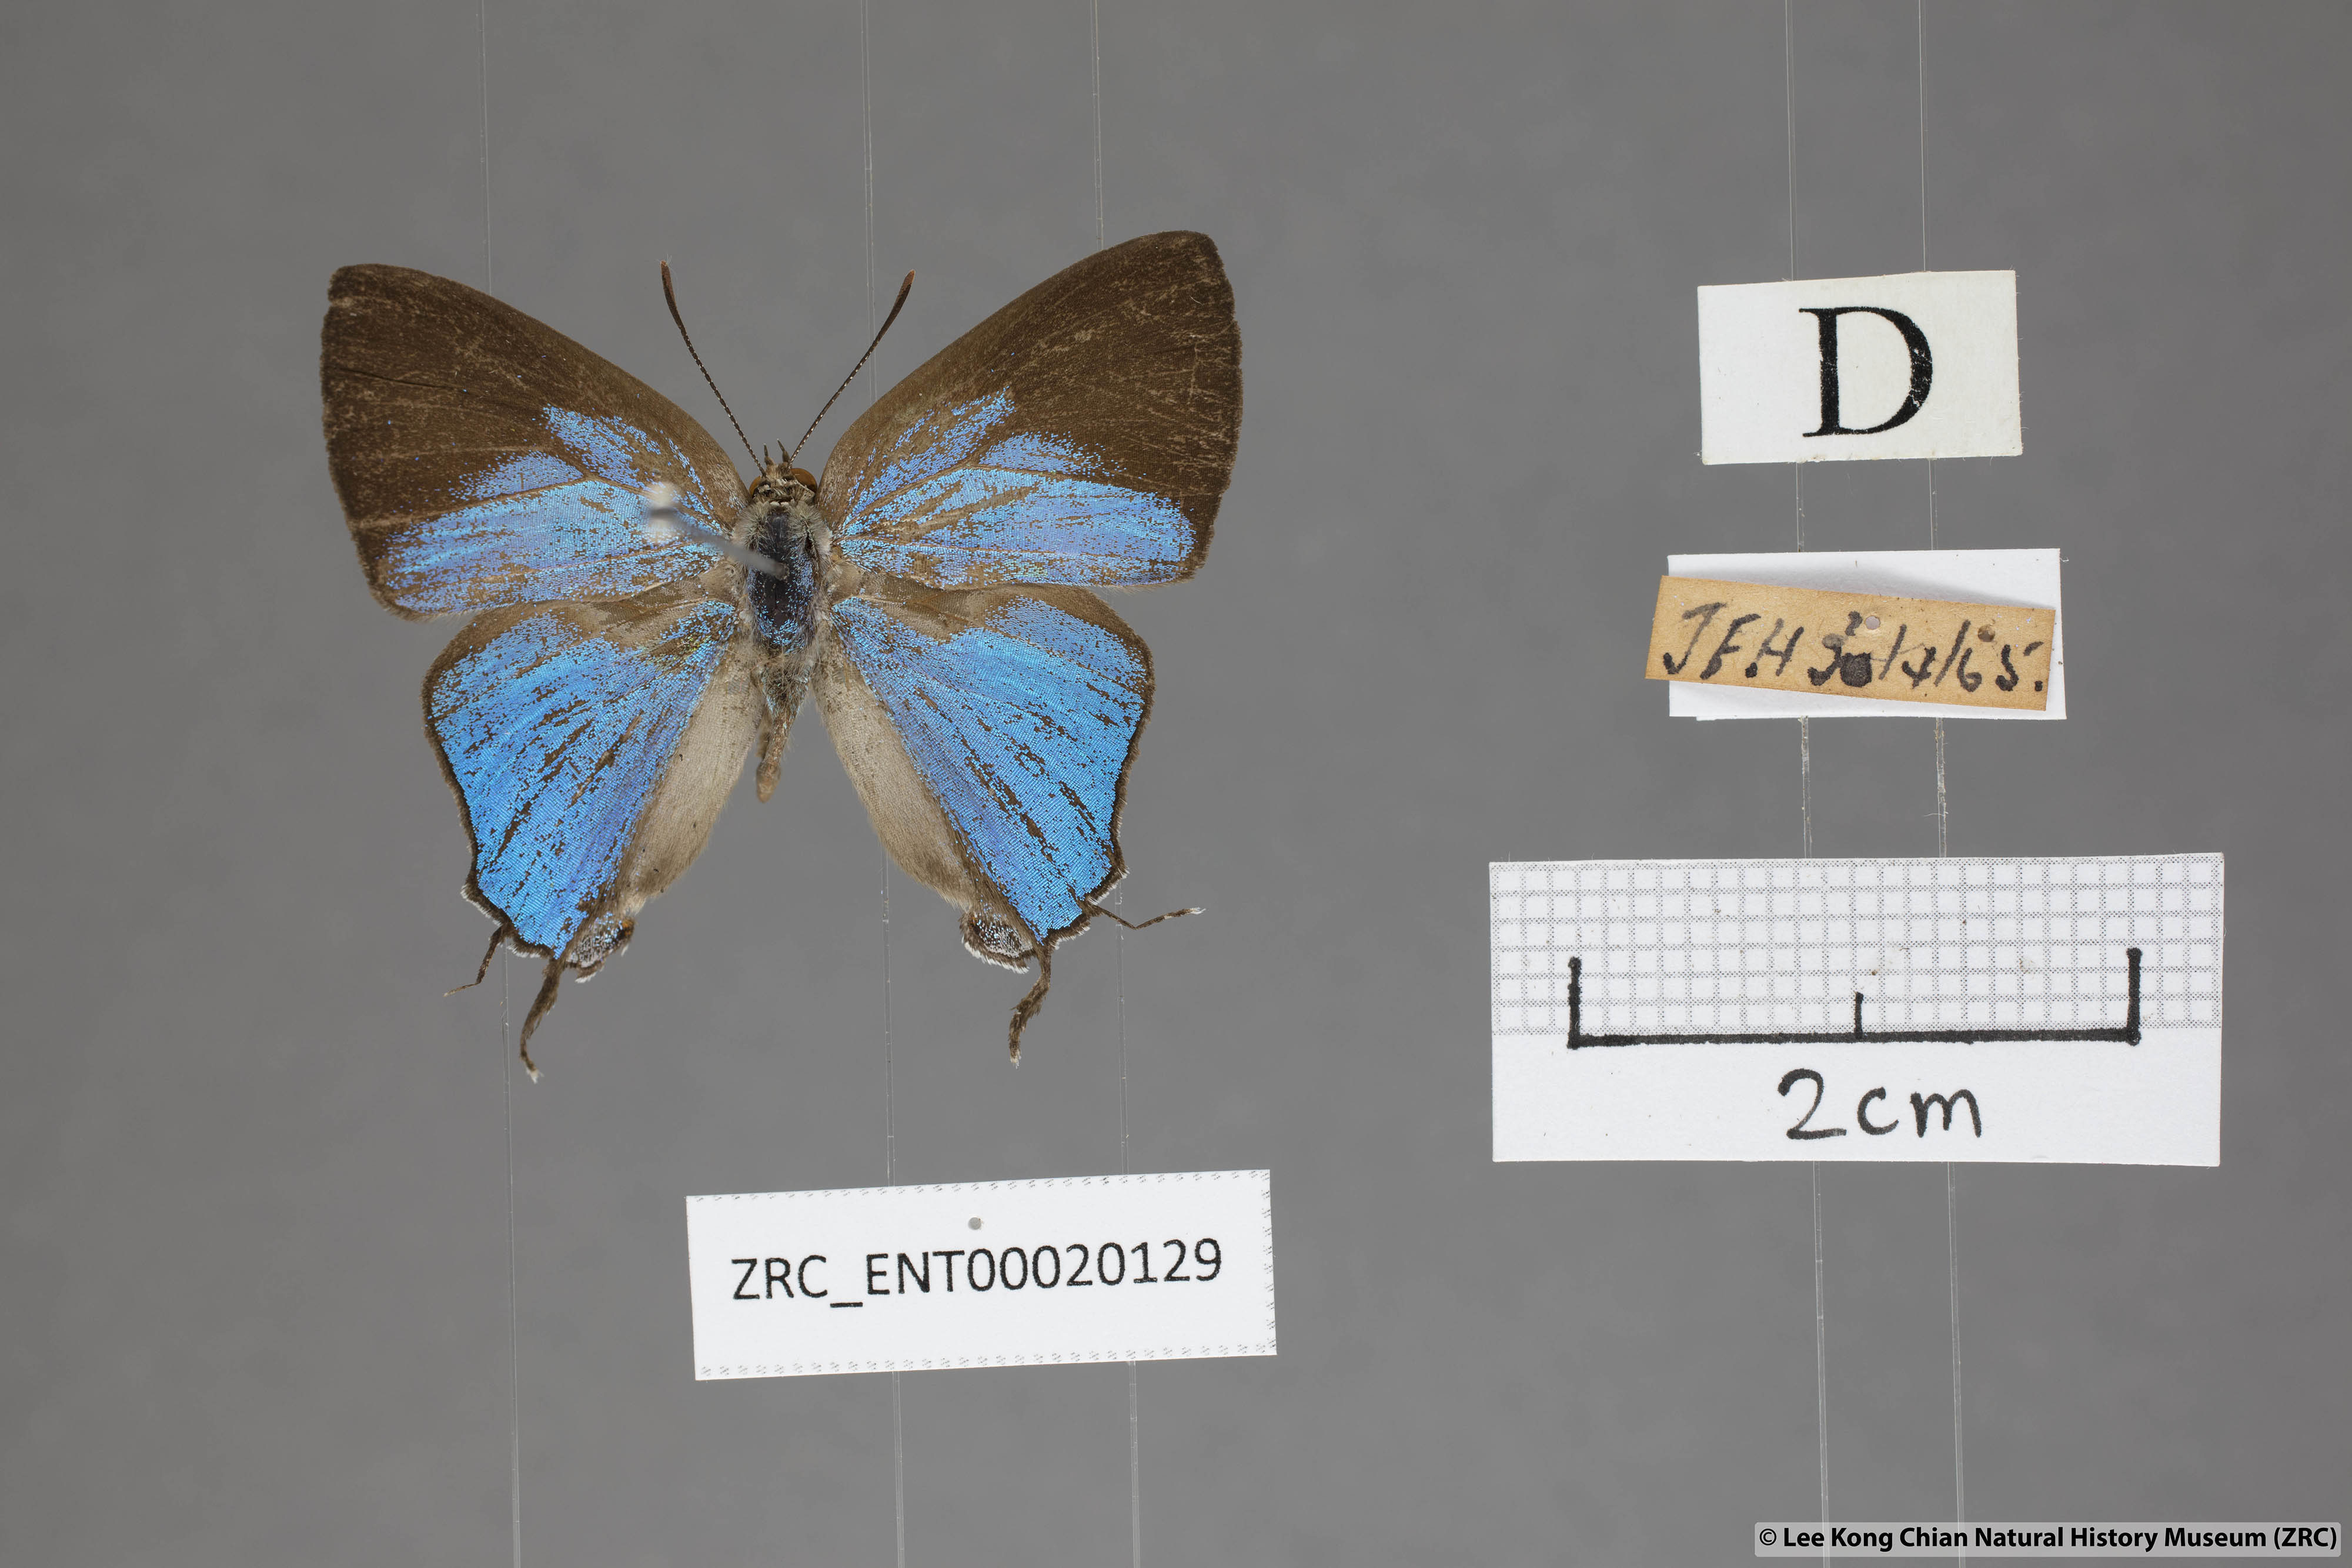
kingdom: Animalia
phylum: Arthropoda
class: Insecta
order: Lepidoptera
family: Lycaenidae
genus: Creon
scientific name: Creon cleobis
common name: Broad-tail royal
